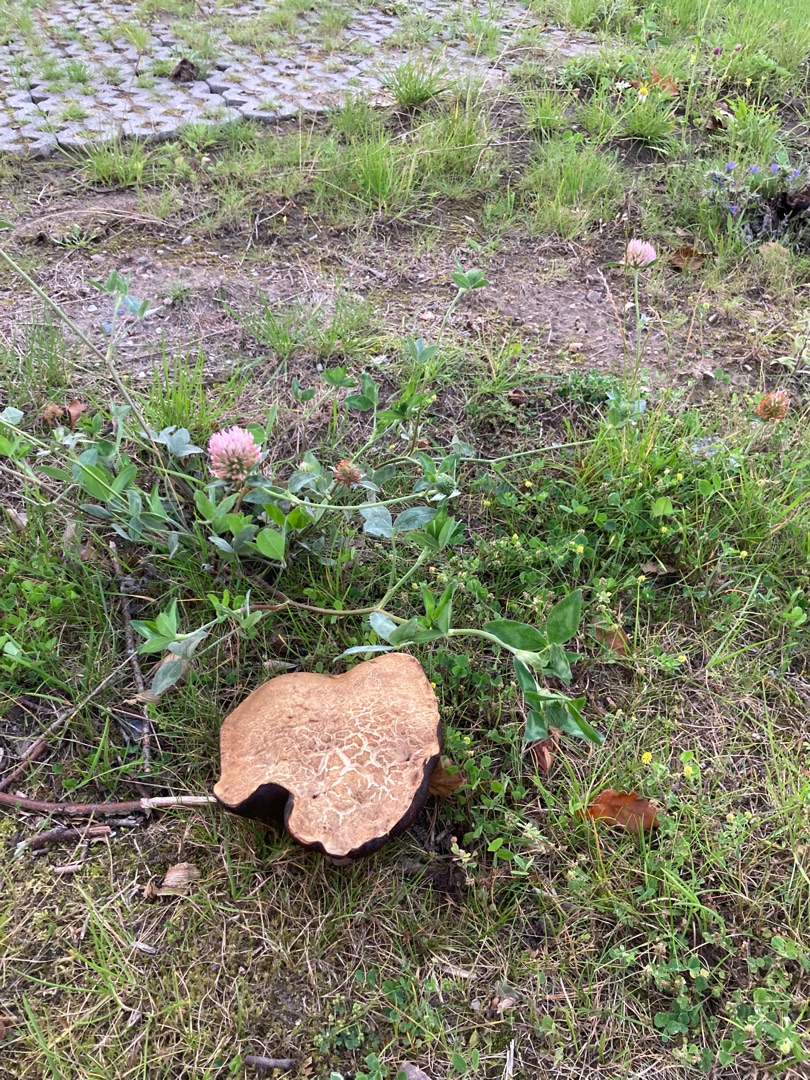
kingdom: Plantae
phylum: Tracheophyta
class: Magnoliopsida
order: Fabales
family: Fabaceae
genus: Trifolium
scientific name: Trifolium pratense
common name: Rød-kløver
